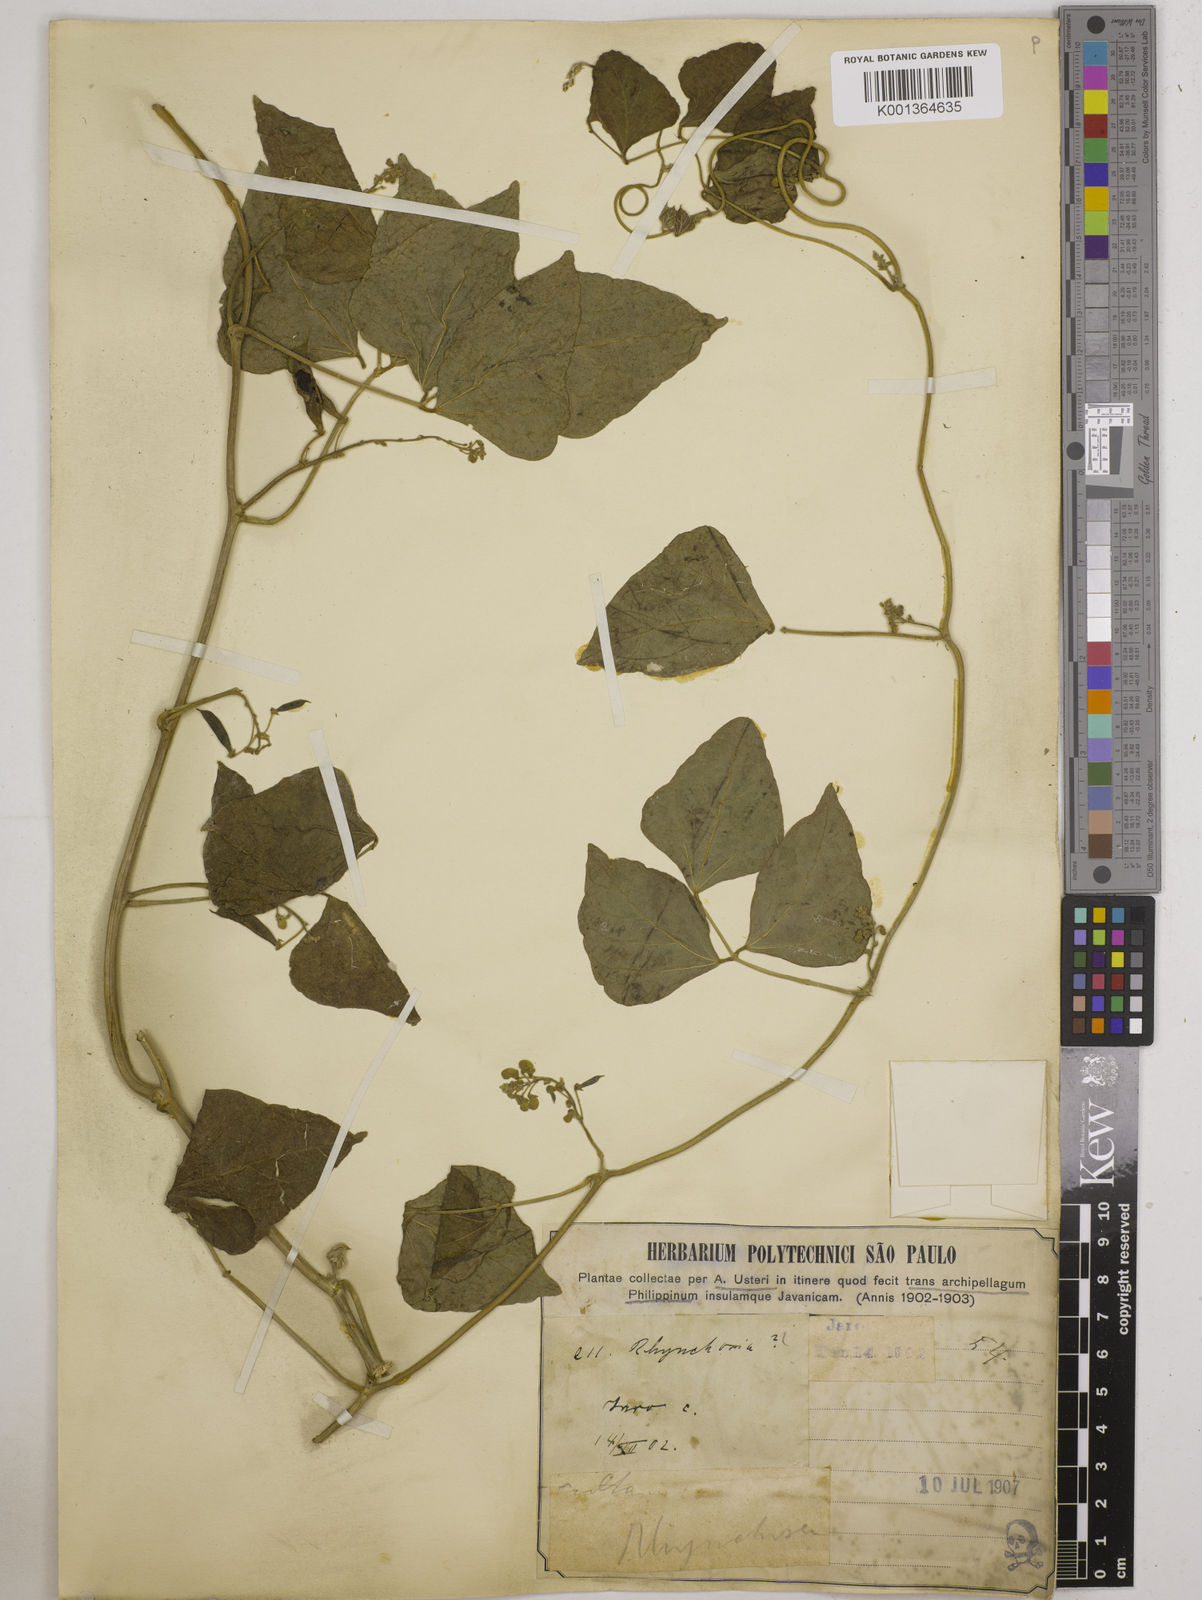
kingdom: Plantae
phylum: Tracheophyta
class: Magnoliopsida
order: Fabales
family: Fabaceae
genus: Phaseolus
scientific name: Phaseolus lunatus
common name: Sieva bean
